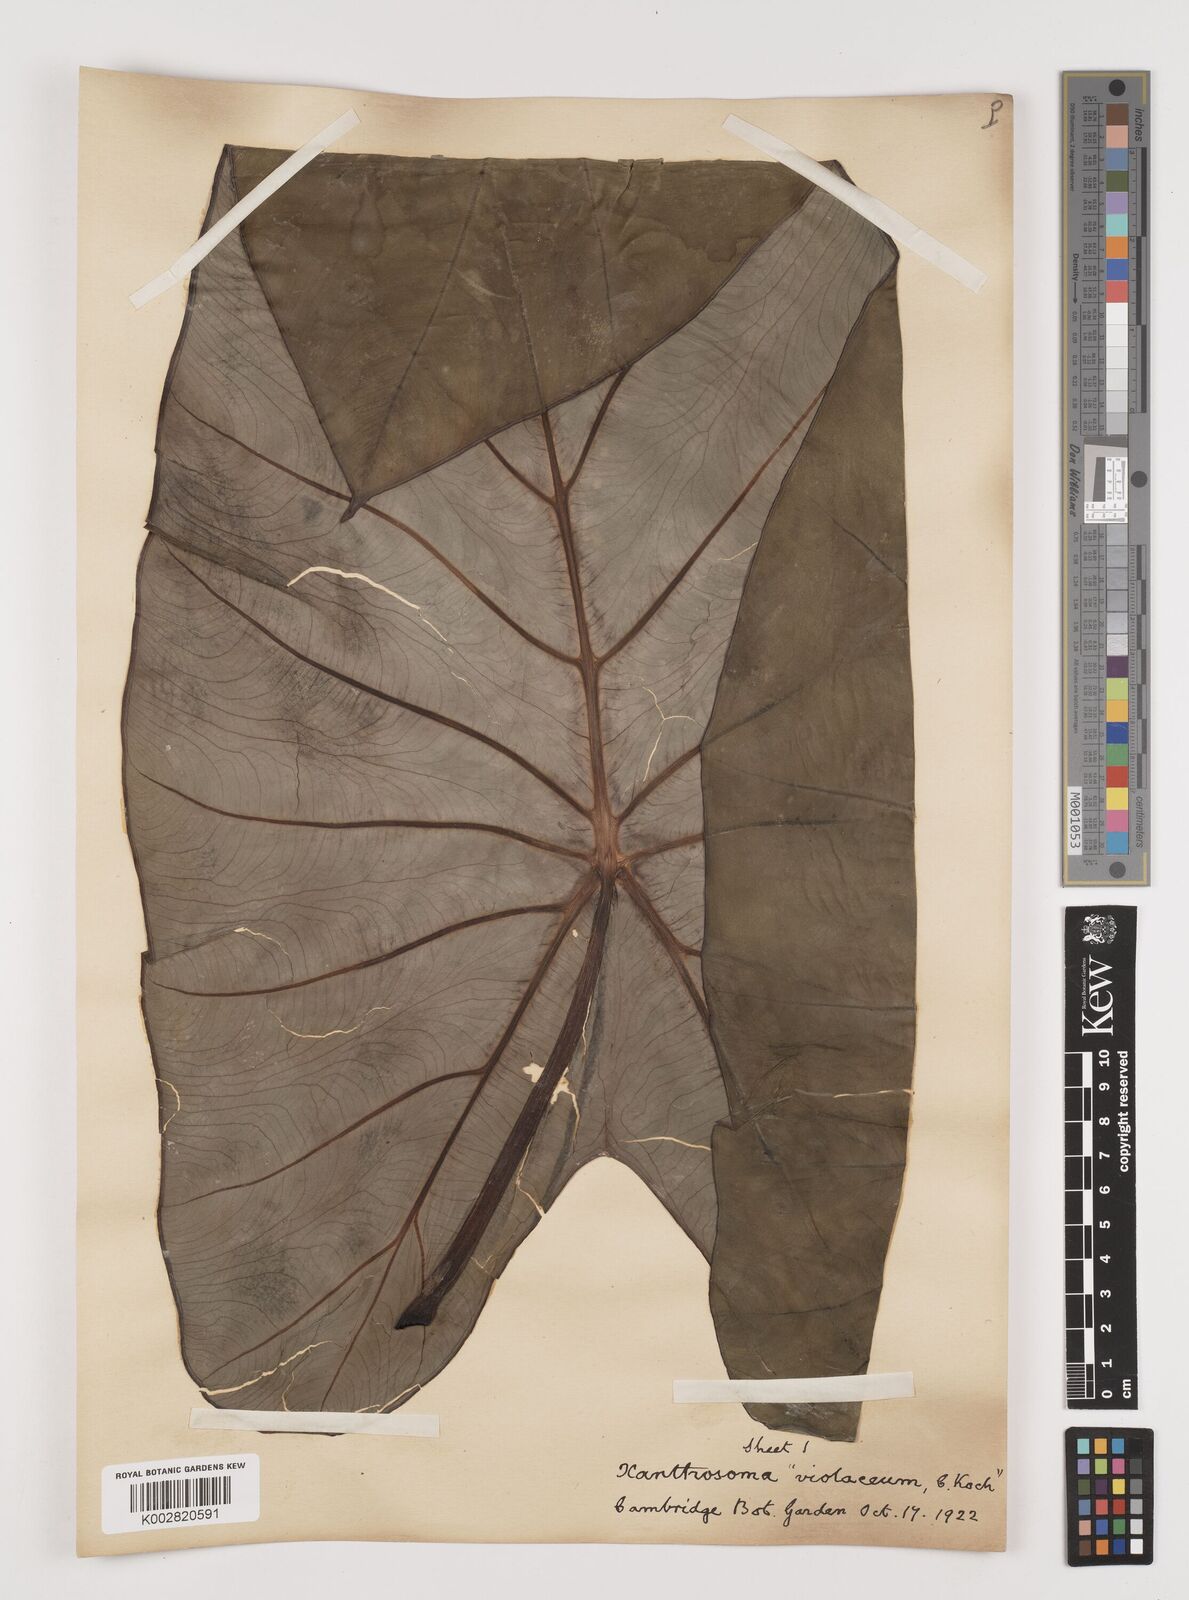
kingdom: Plantae
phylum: Tracheophyta
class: Liliopsida
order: Alismatales
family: Araceae
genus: Colocasia
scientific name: Colocasia esculenta
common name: Taro
